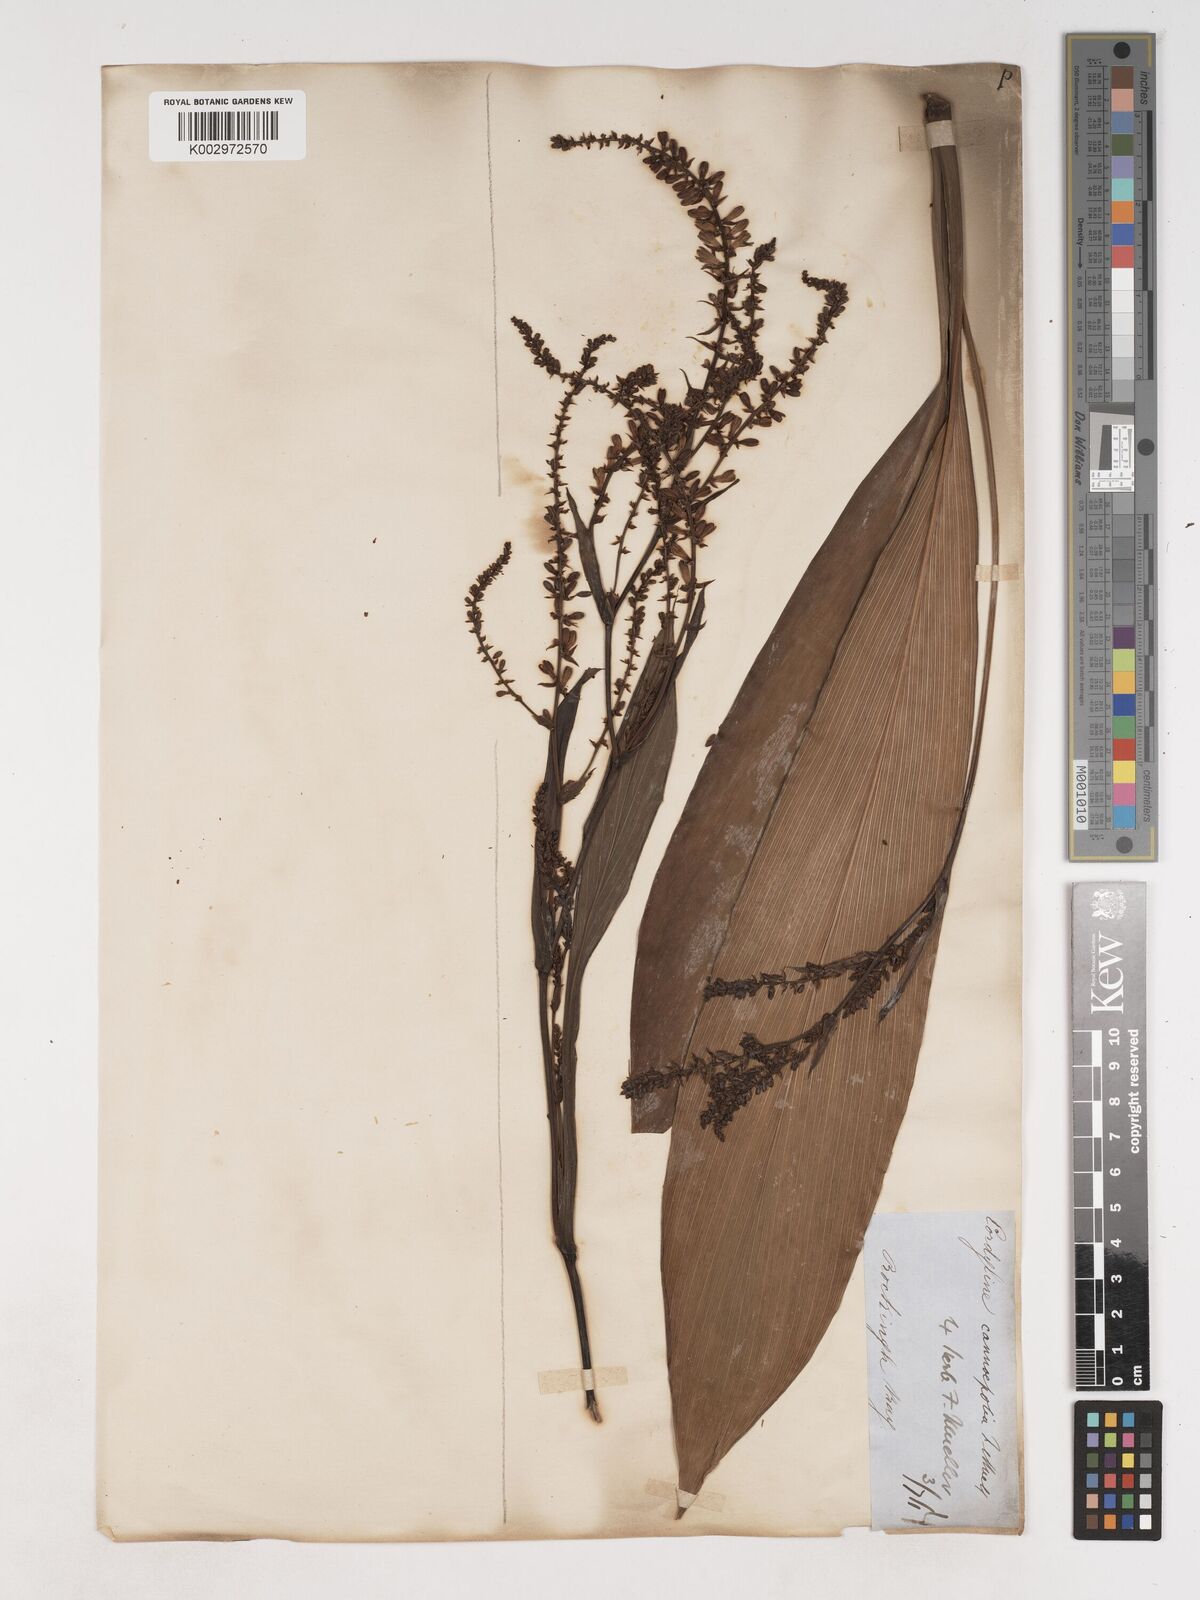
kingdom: Plantae
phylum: Tracheophyta
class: Liliopsida
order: Asparagales
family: Asparagaceae
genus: Cordyline
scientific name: Cordyline fruticosa
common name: Good-luck-plant
